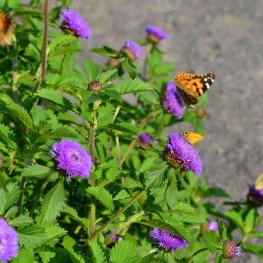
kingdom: Animalia
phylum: Arthropoda
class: Insecta
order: Lepidoptera
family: Nymphalidae
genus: Vanessa
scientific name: Vanessa cardui
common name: Painted Lady
